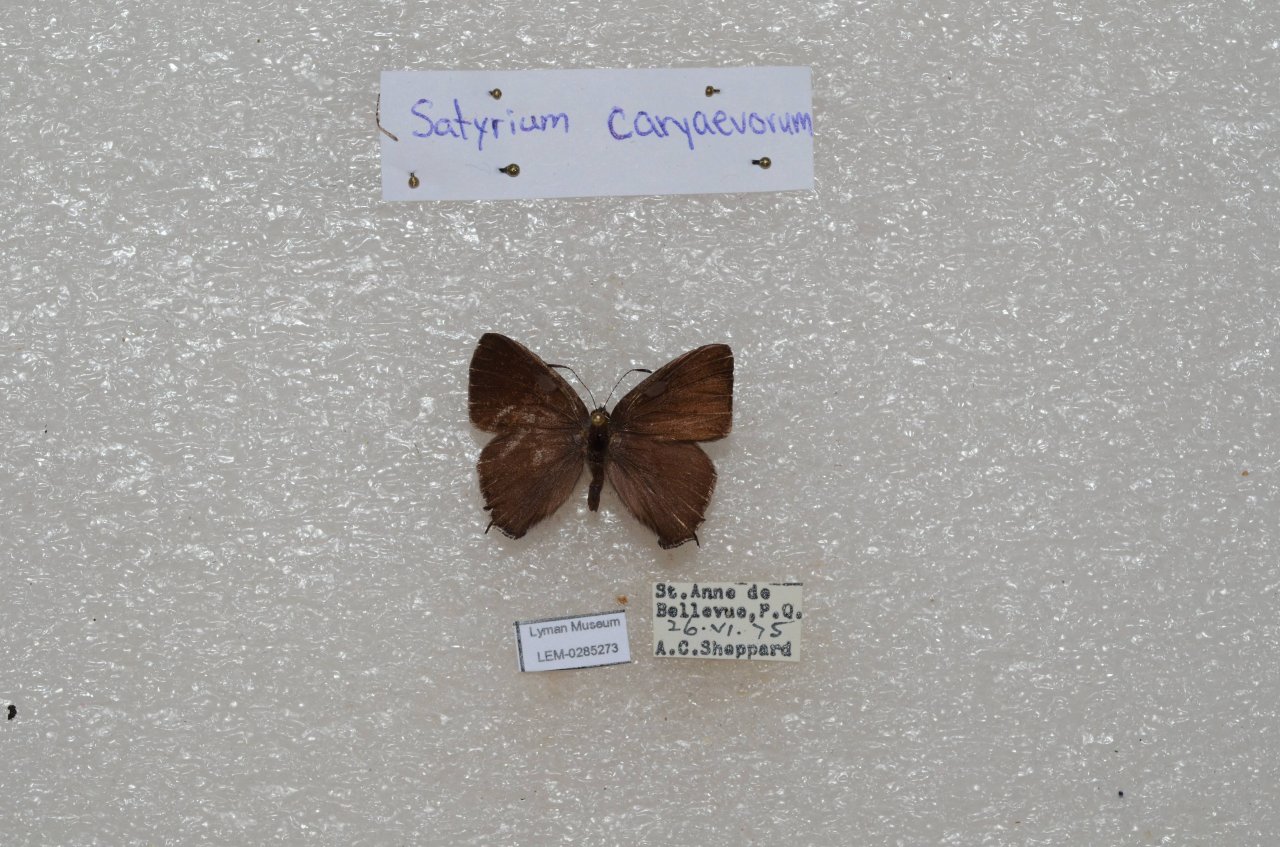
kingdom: Animalia
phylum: Arthropoda
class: Insecta
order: Lepidoptera
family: Lycaenidae
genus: Satyrium
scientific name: Satyrium calanus
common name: Banded Hairstreak
